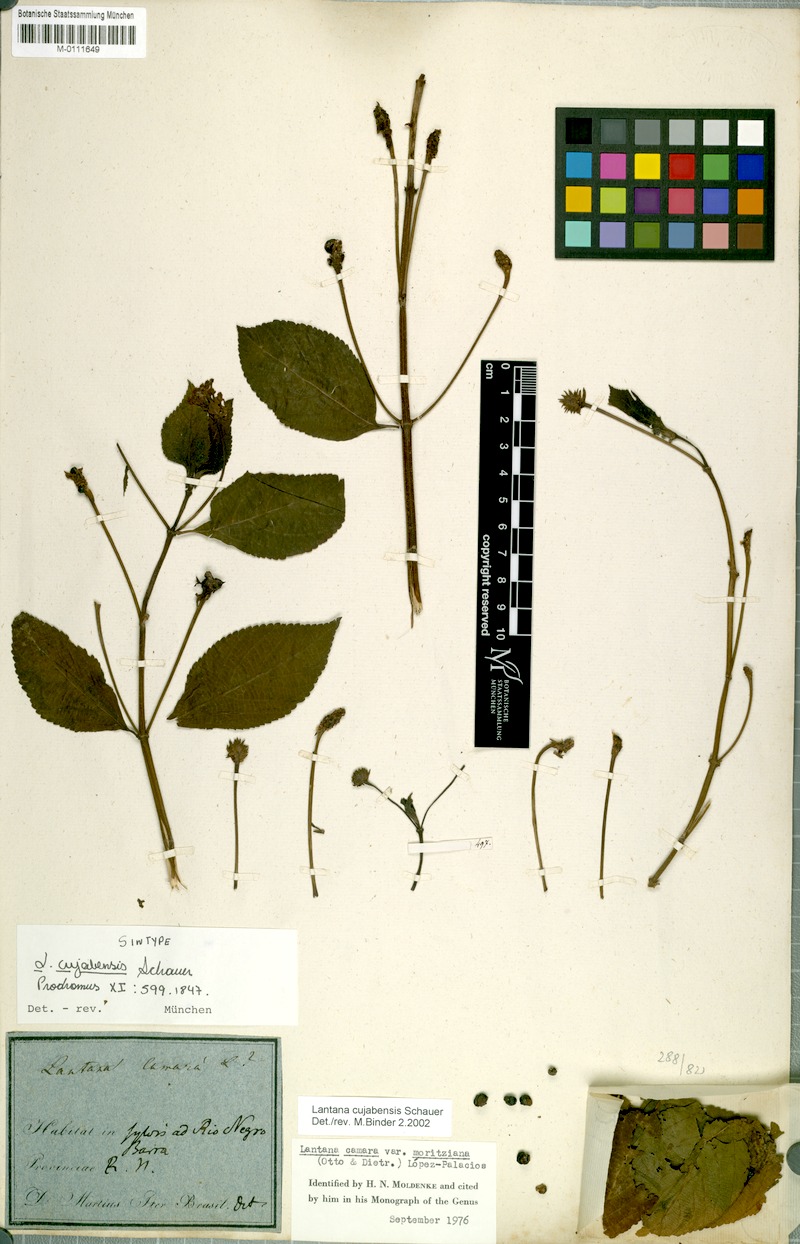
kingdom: Plantae
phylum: Tracheophyta
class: Magnoliopsida
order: Lamiales
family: Verbenaceae
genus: Lantana
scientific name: Lantana cujabensis
